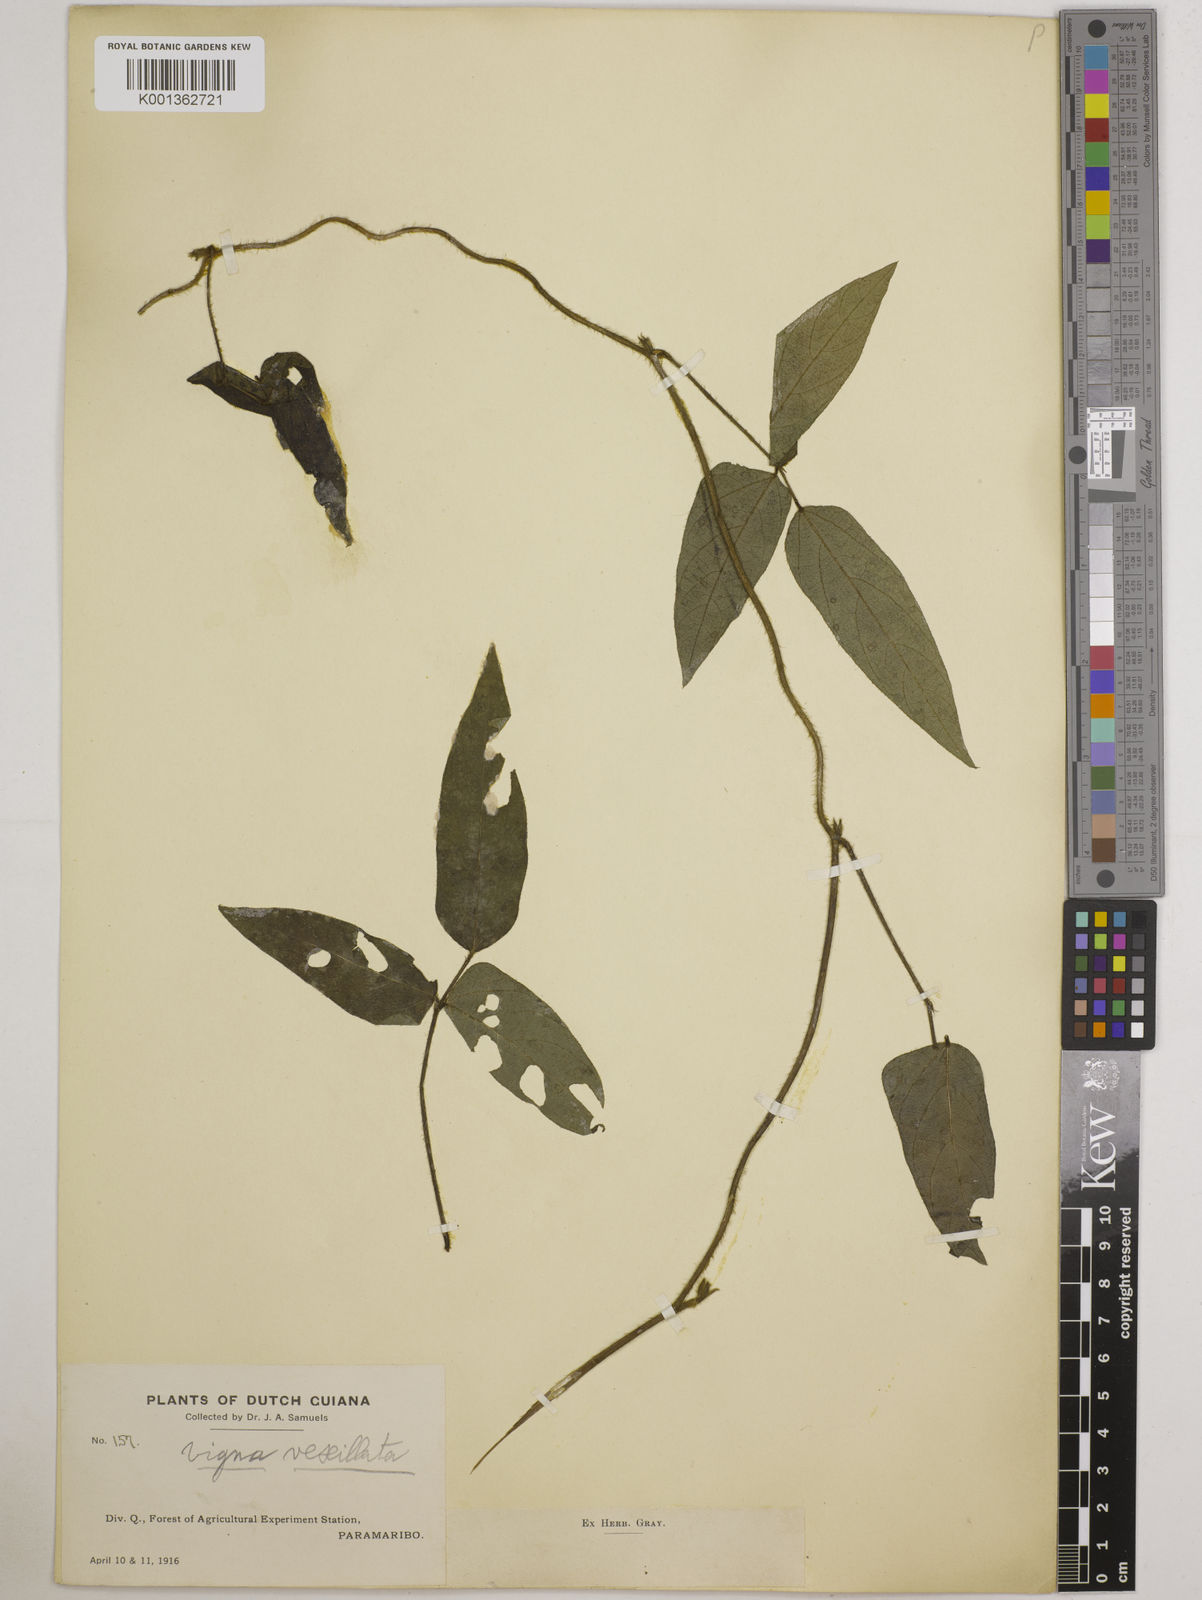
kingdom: Plantae
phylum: Tracheophyta
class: Magnoliopsida
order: Fabales
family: Fabaceae
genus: Vigna
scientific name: Vigna vexillata
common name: Zombi pea
